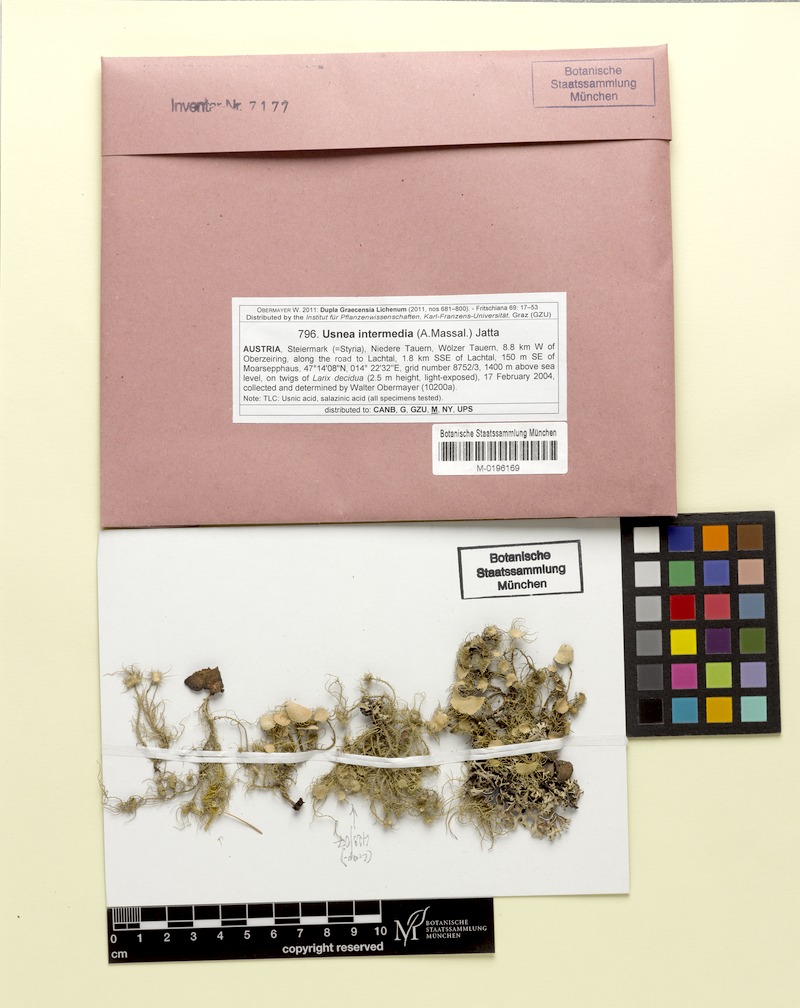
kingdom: Fungi
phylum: Ascomycota
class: Lecanoromycetes
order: Lecanorales
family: Parmeliaceae
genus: Usnea
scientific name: Usnea intermedia
